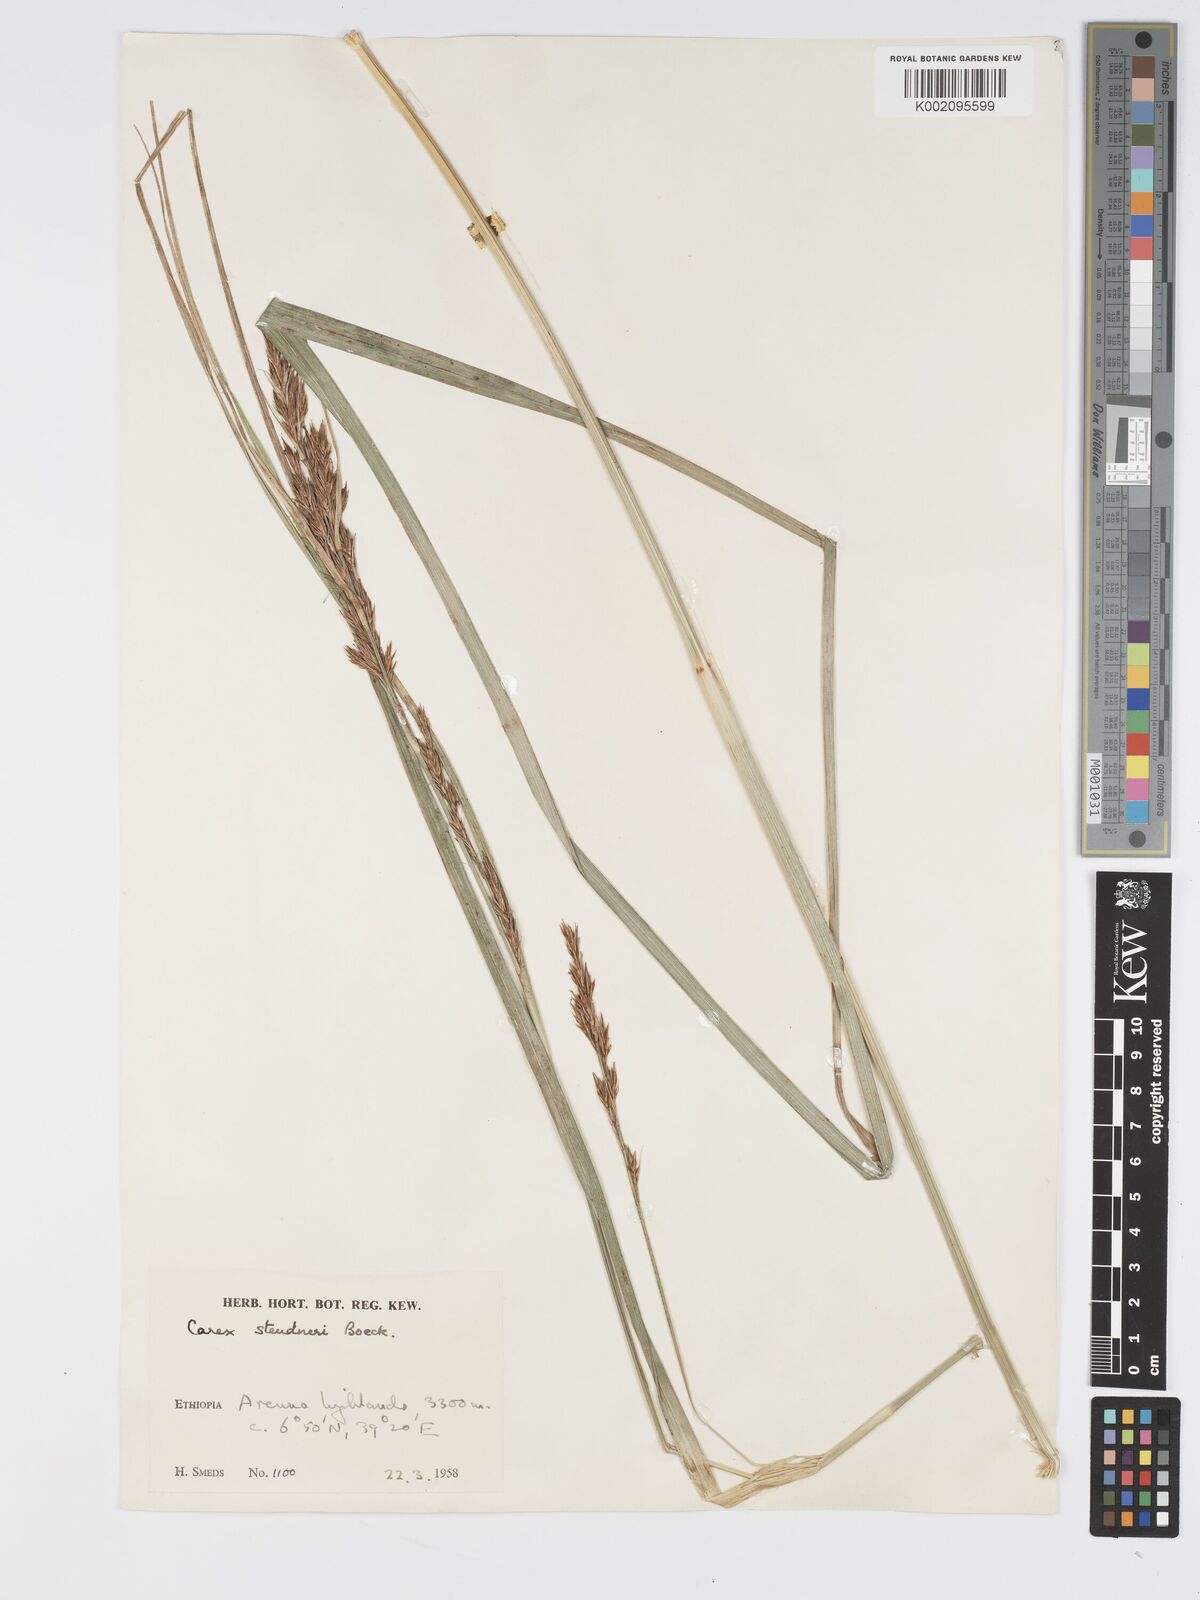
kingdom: Plantae
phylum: Tracheophyta
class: Liliopsida
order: Poales
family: Cyperaceae
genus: Carex
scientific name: Carex steudneri
